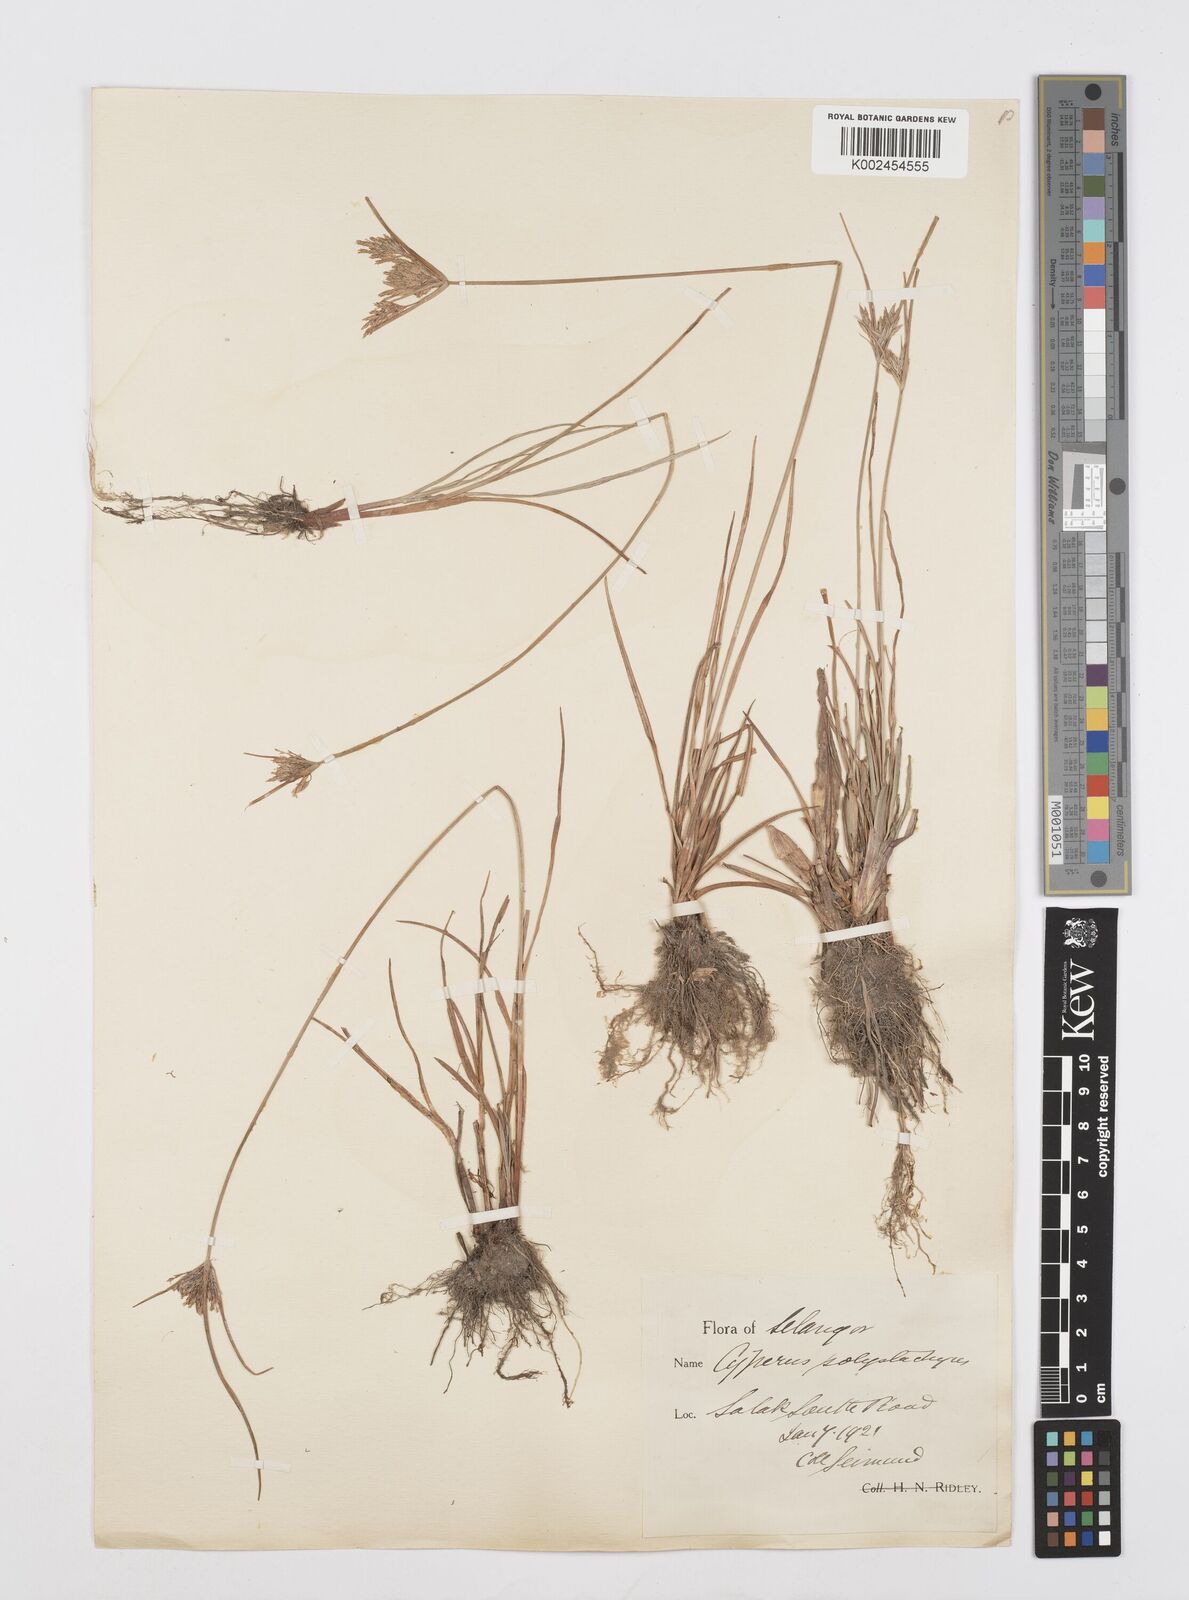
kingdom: Plantae
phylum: Tracheophyta
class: Liliopsida
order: Poales
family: Cyperaceae
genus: Cyperus
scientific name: Cyperus polystachyos
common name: Bunchy flat sedge
